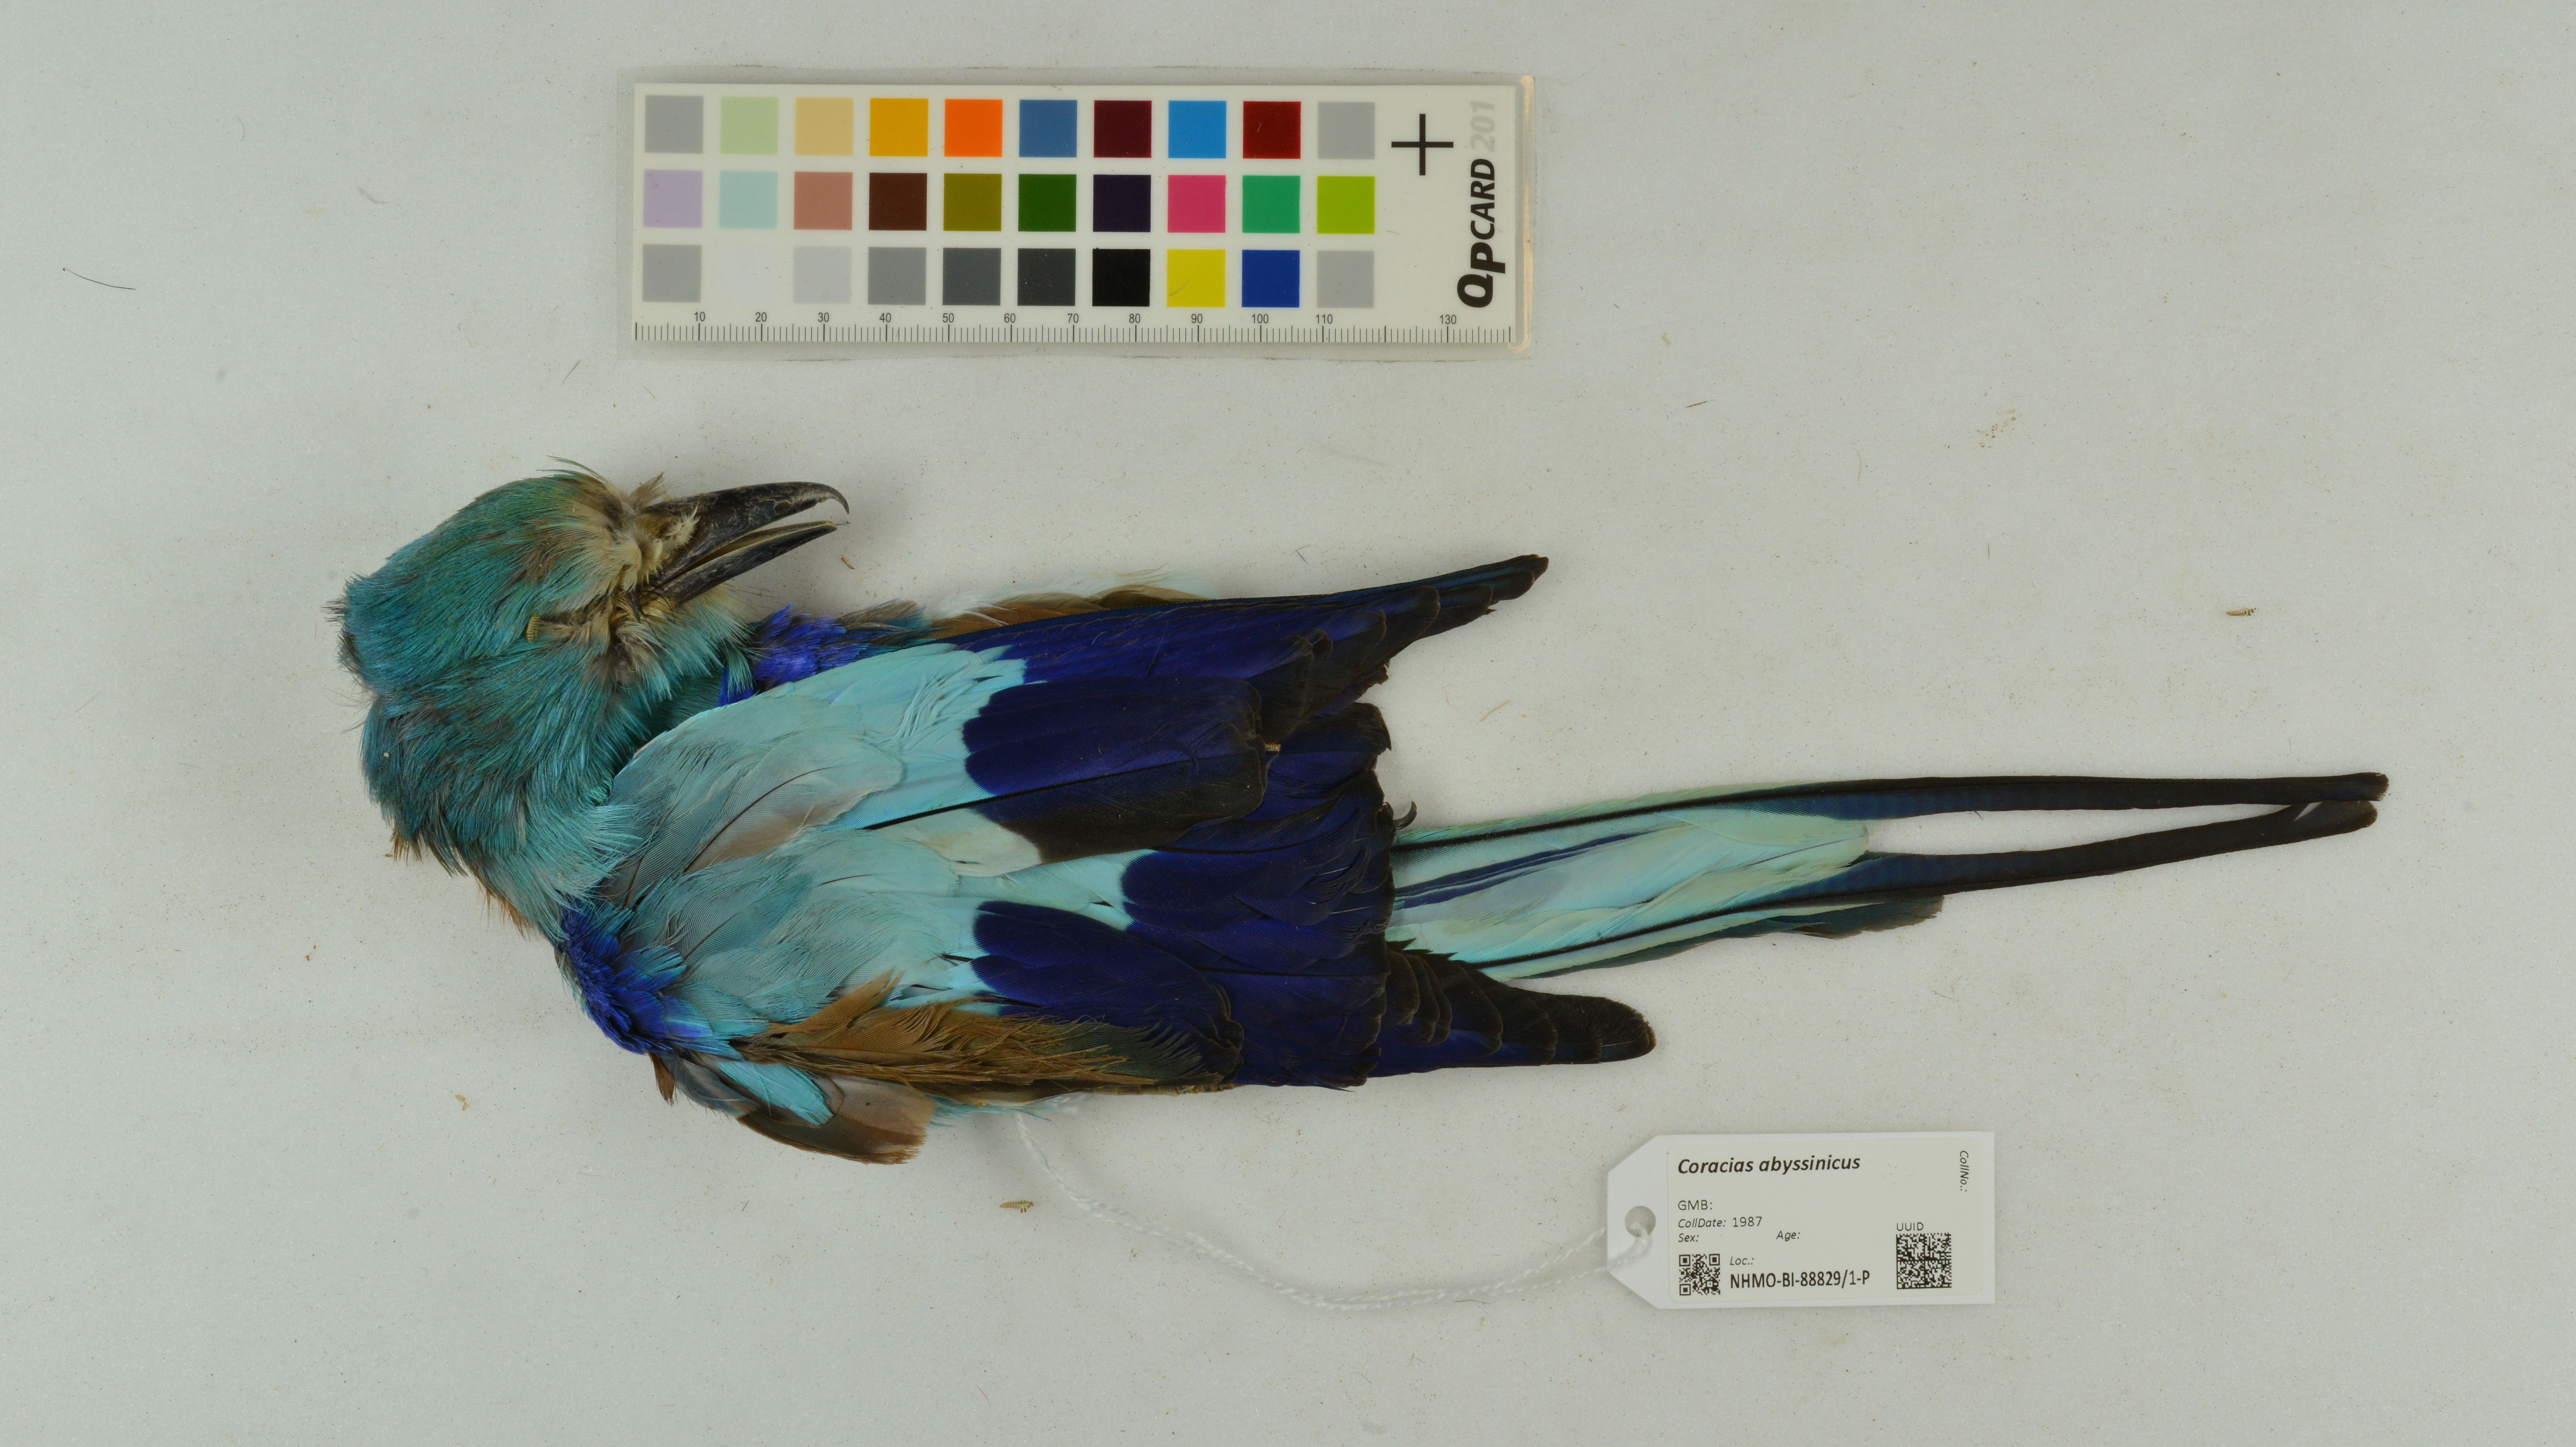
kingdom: Animalia
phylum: Chordata
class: Aves
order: Coraciiformes
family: Coraciidae
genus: Coracias
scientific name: Coracias abyssinicus
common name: Abyssinian roller
